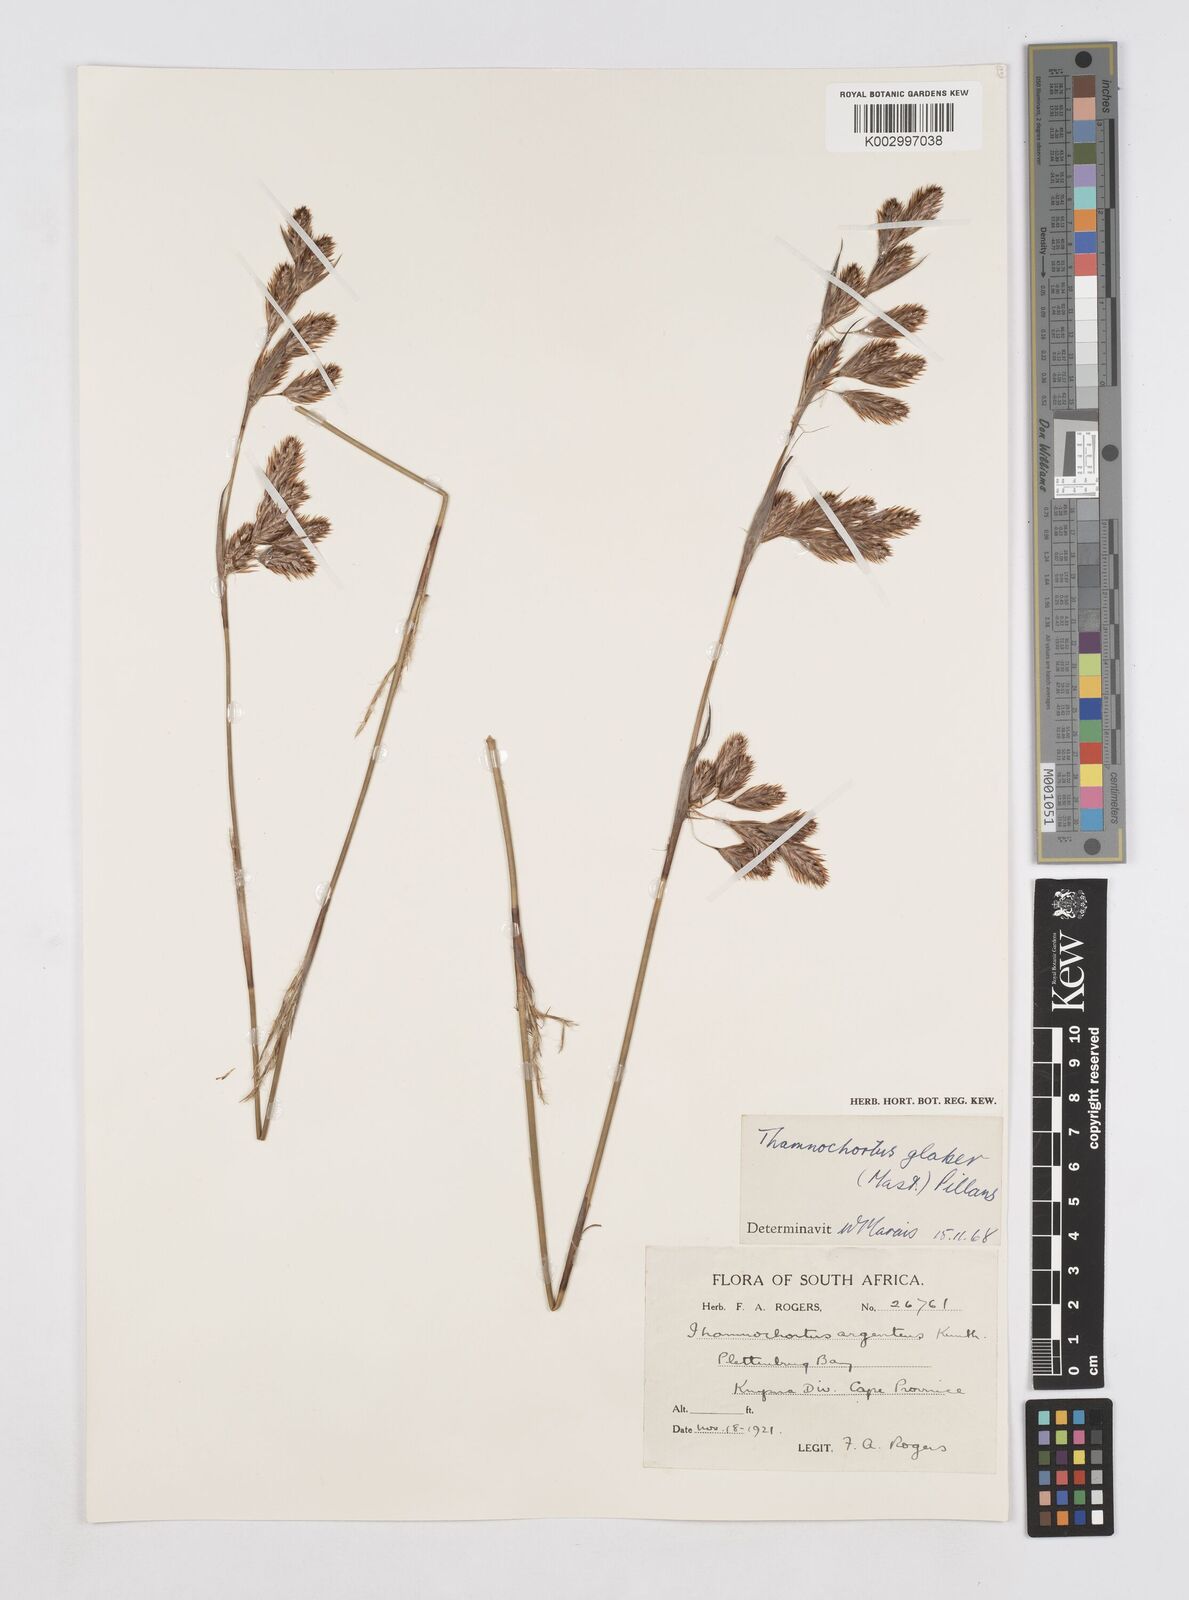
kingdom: Plantae
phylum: Tracheophyta
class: Liliopsida
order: Poales
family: Restionaceae
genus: Thamnochortus
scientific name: Thamnochortus glaber
